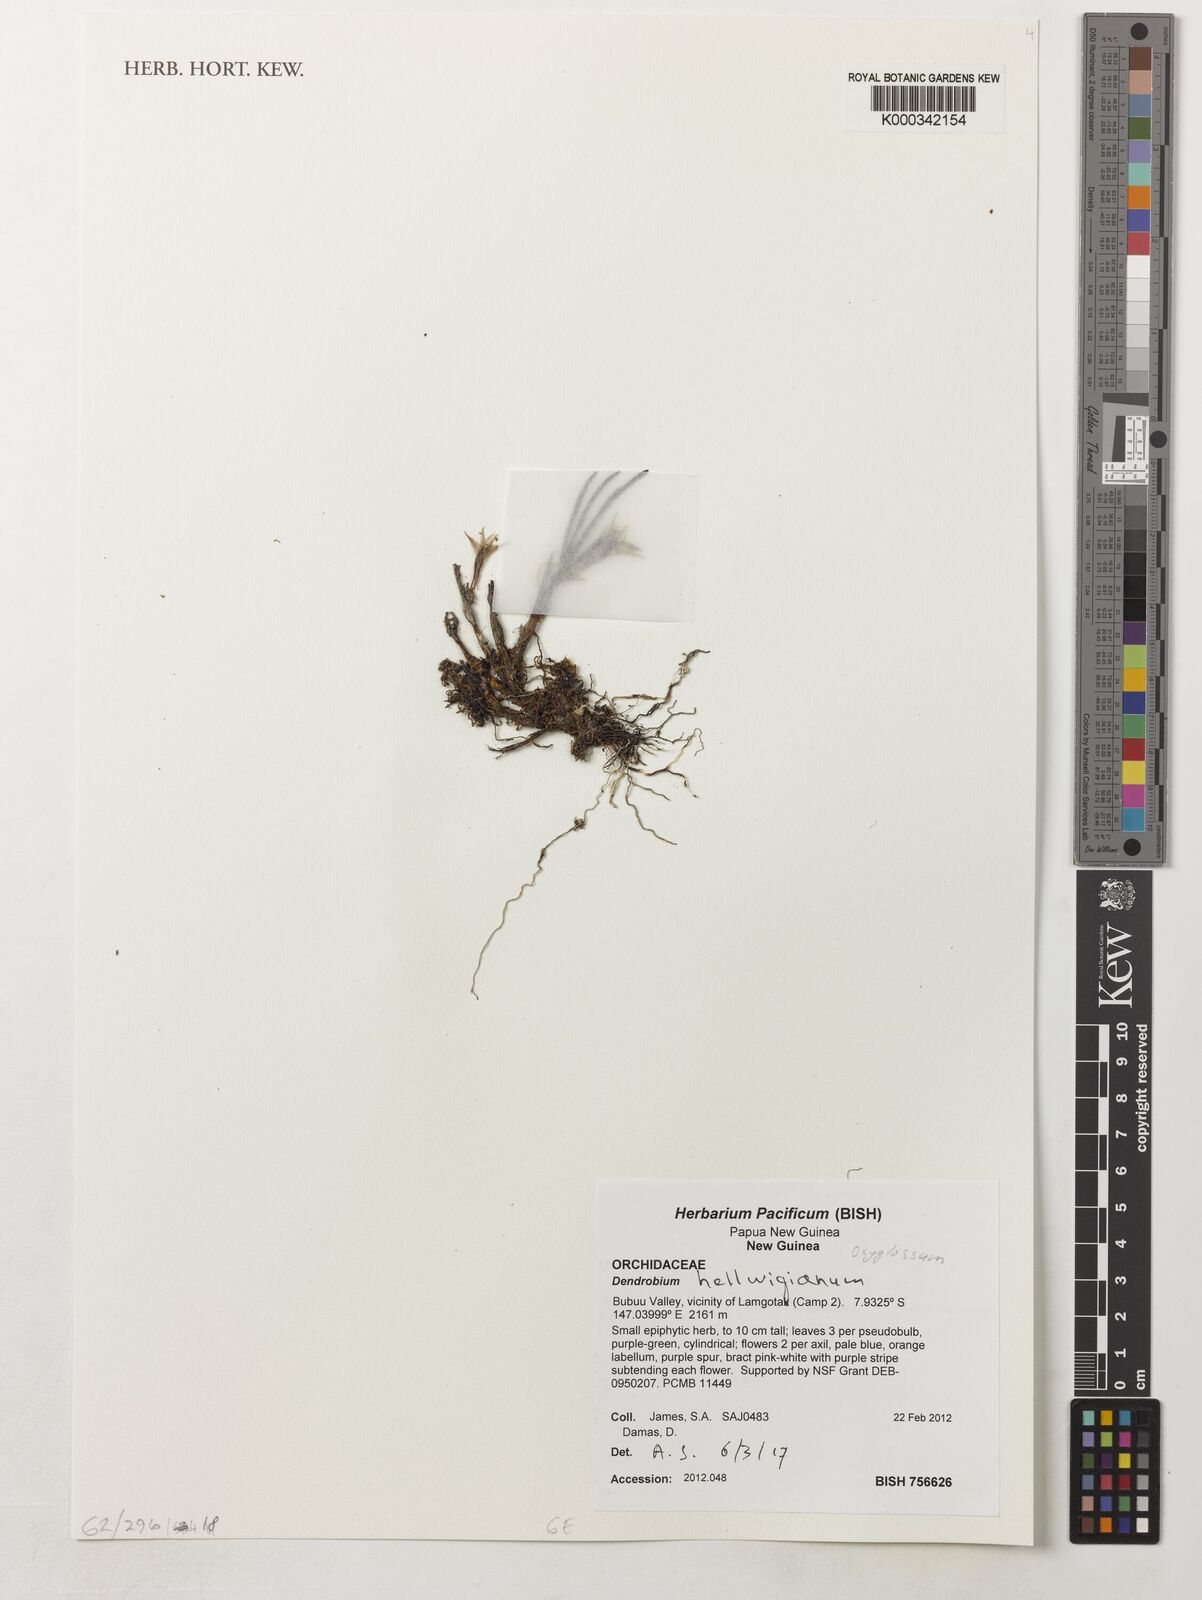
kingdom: Plantae
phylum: Tracheophyta
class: Liliopsida
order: Asparagales
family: Orchidaceae
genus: Dendrobium
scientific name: Dendrobium hellwigianum
